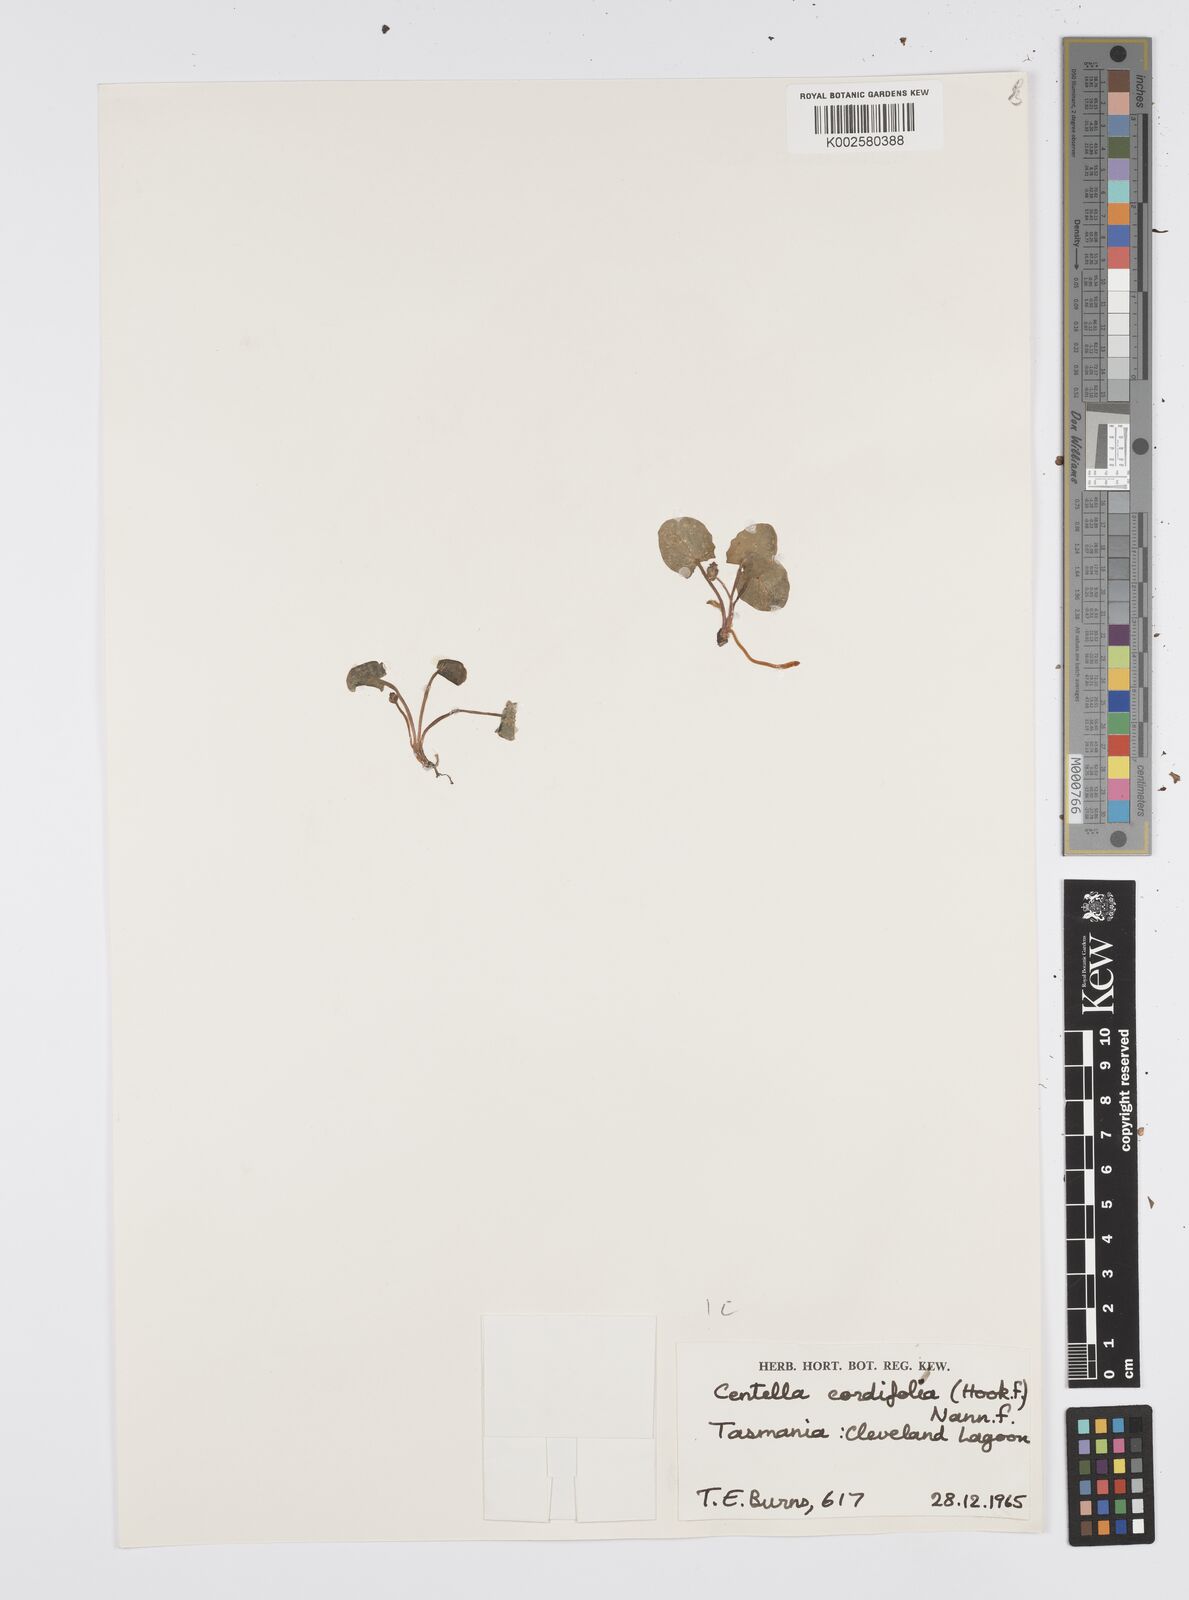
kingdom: Plantae
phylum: Tracheophyta
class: Magnoliopsida
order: Apiales
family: Apiaceae
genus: Centella
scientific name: Centella cordifolia
